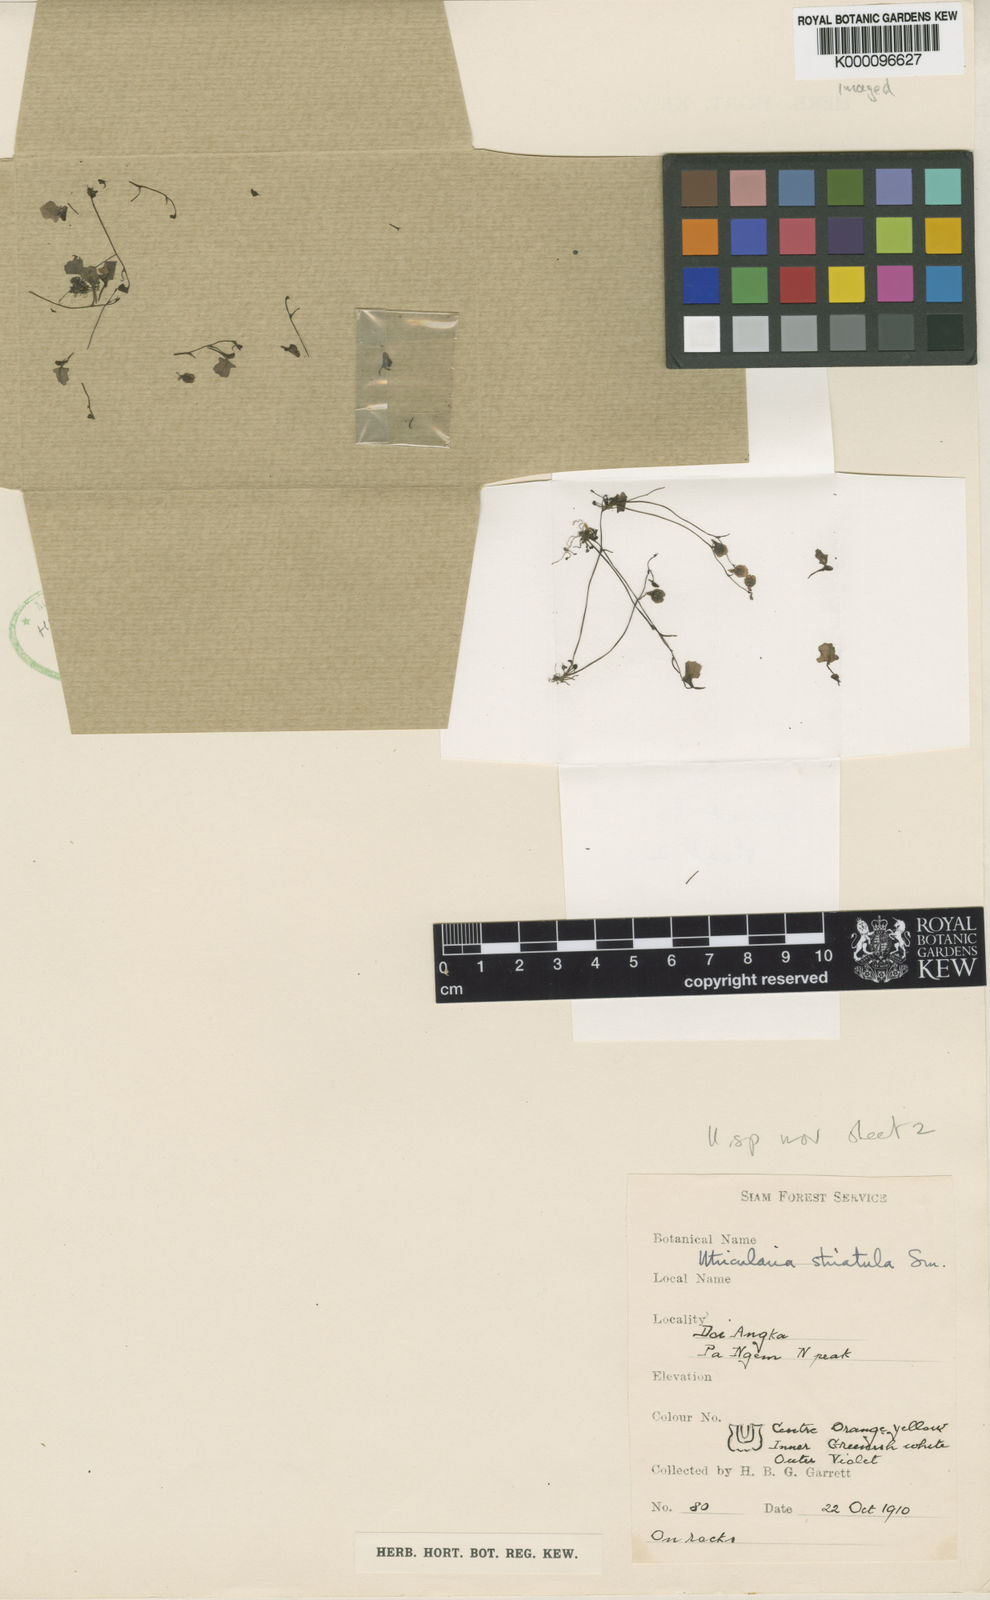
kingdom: Plantae
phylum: Tracheophyta
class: Magnoliopsida
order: Lamiales
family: Lentibulariaceae
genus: Utricularia
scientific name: Utricularia striatula
